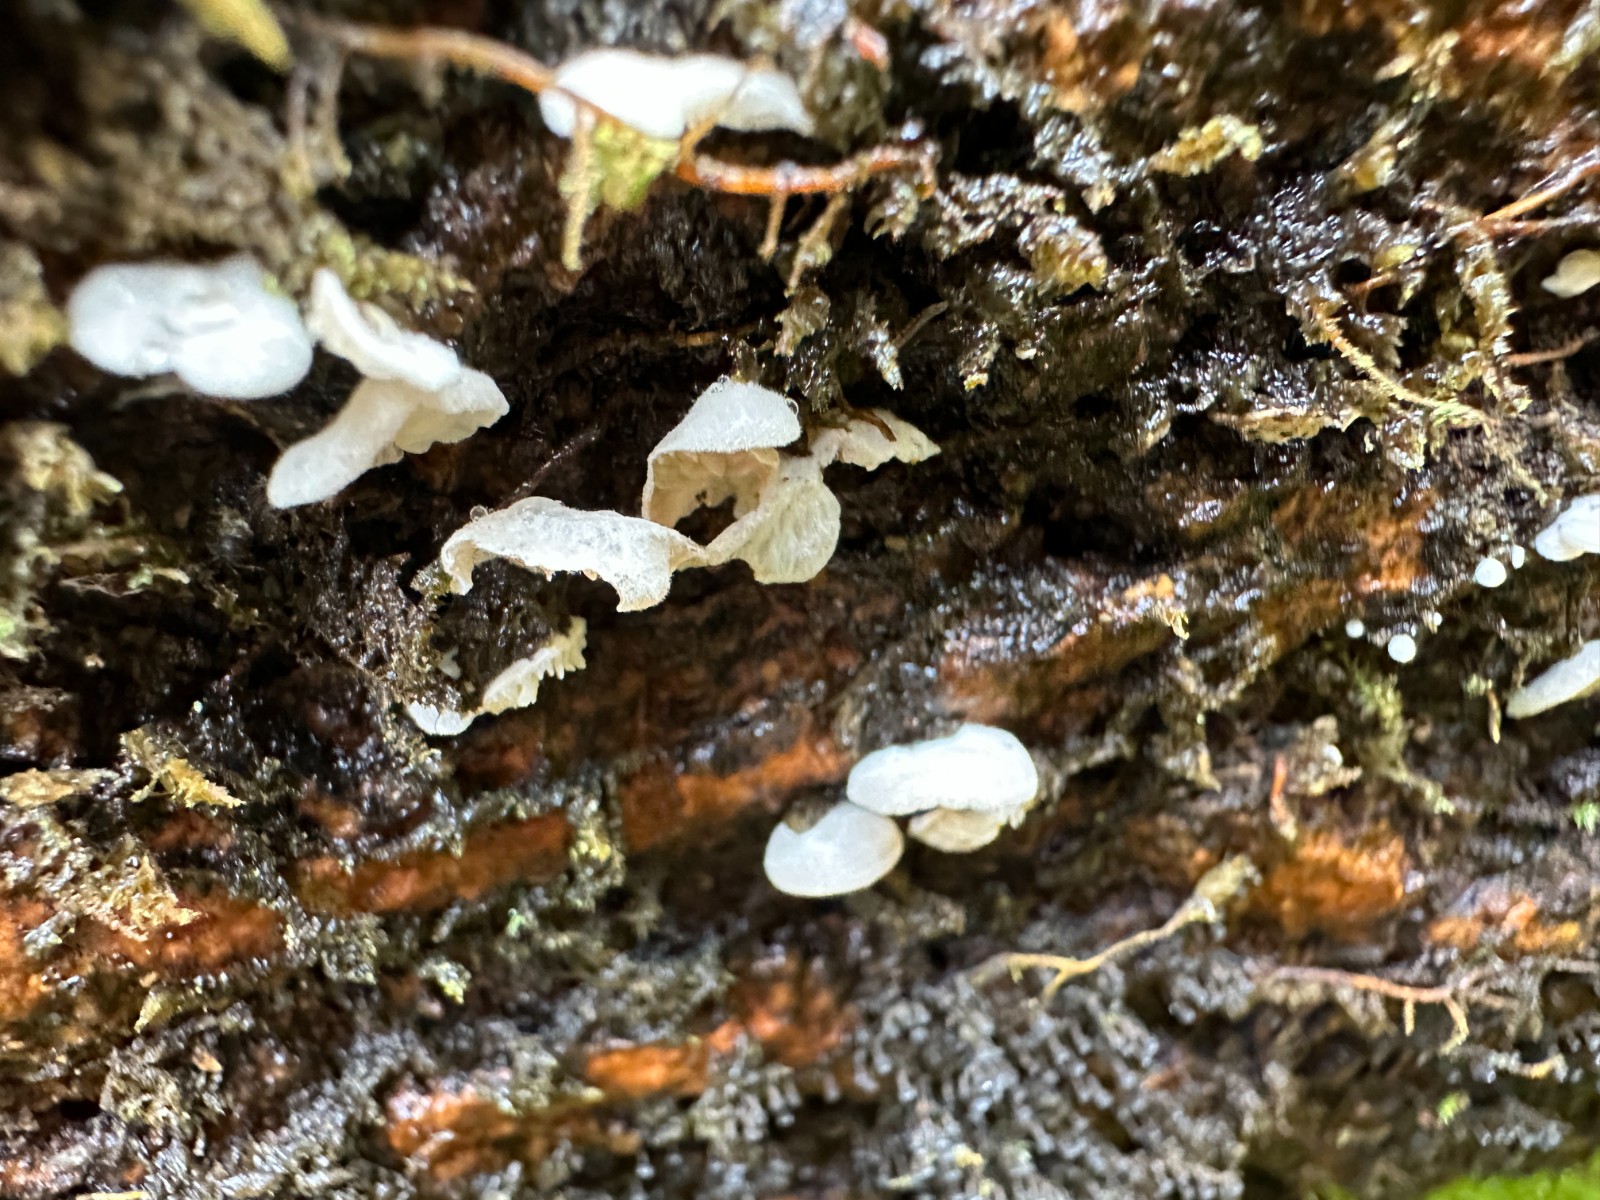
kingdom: Fungi
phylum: Basidiomycota
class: Agaricomycetes
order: Agaricales
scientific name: Agaricales
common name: champignonordenen
